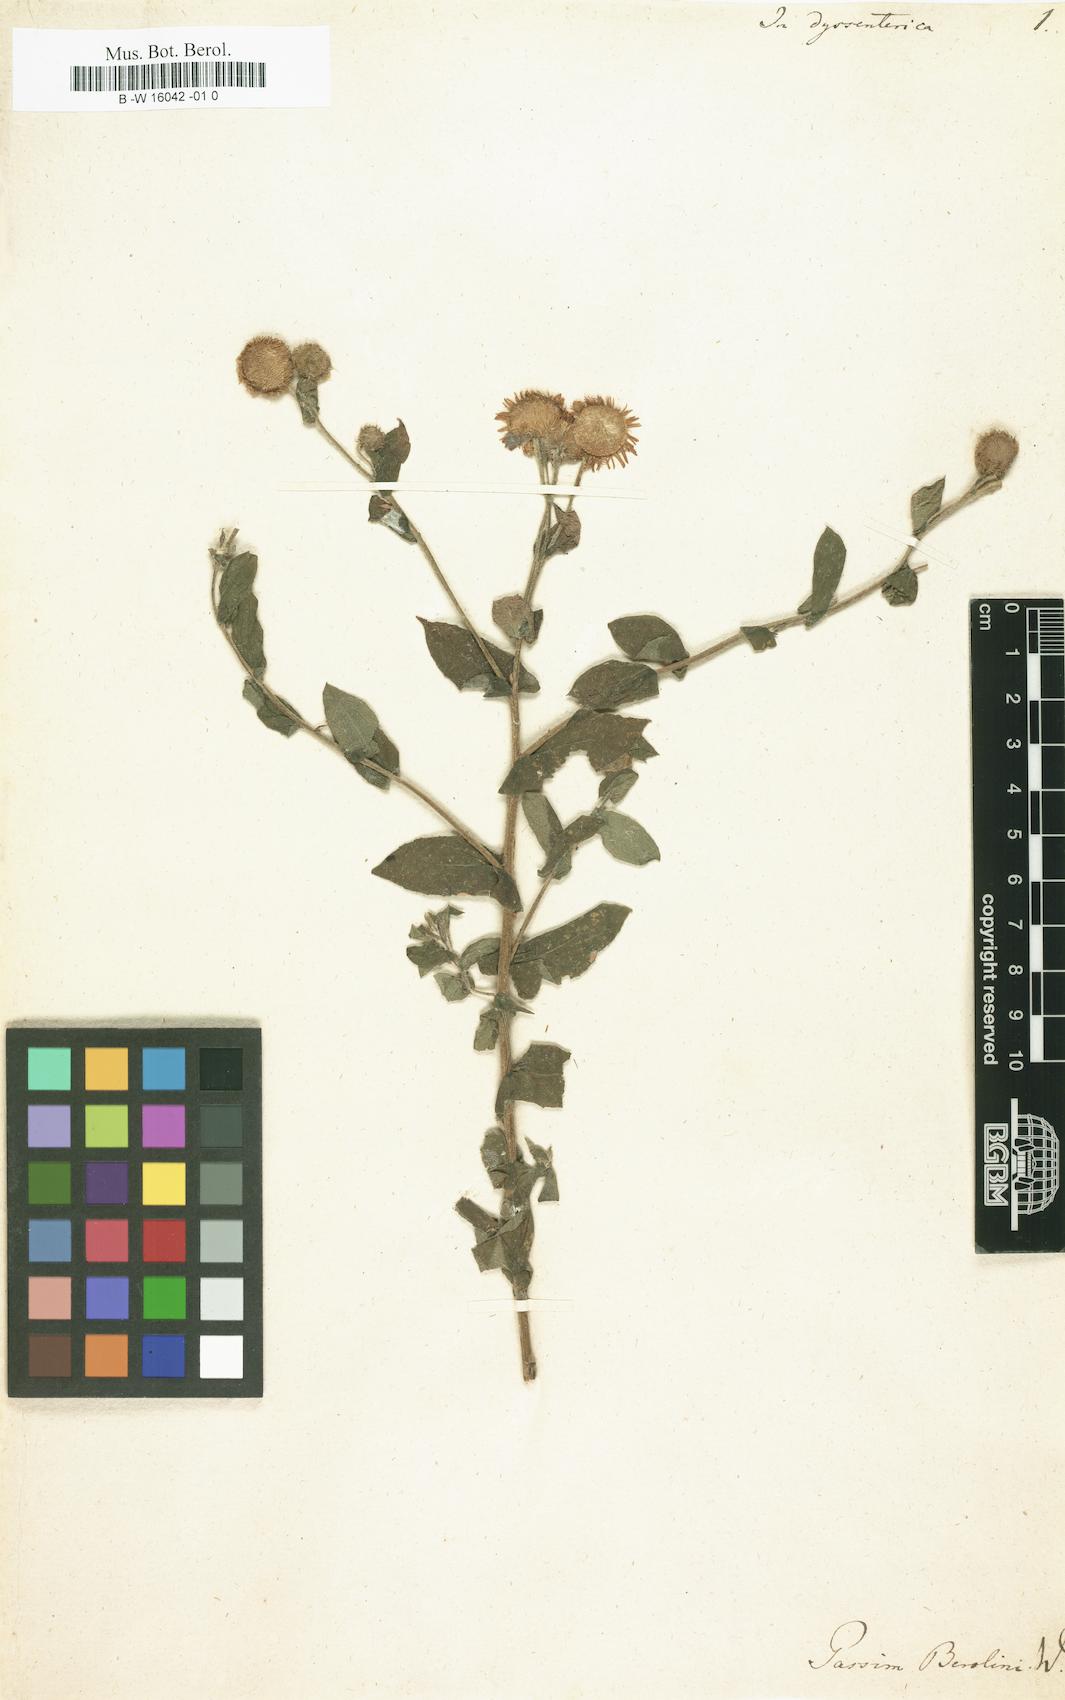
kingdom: Plantae
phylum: Tracheophyta
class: Magnoliopsida
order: Asterales
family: Asteraceae
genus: Inula
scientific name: Inula dysenterica
